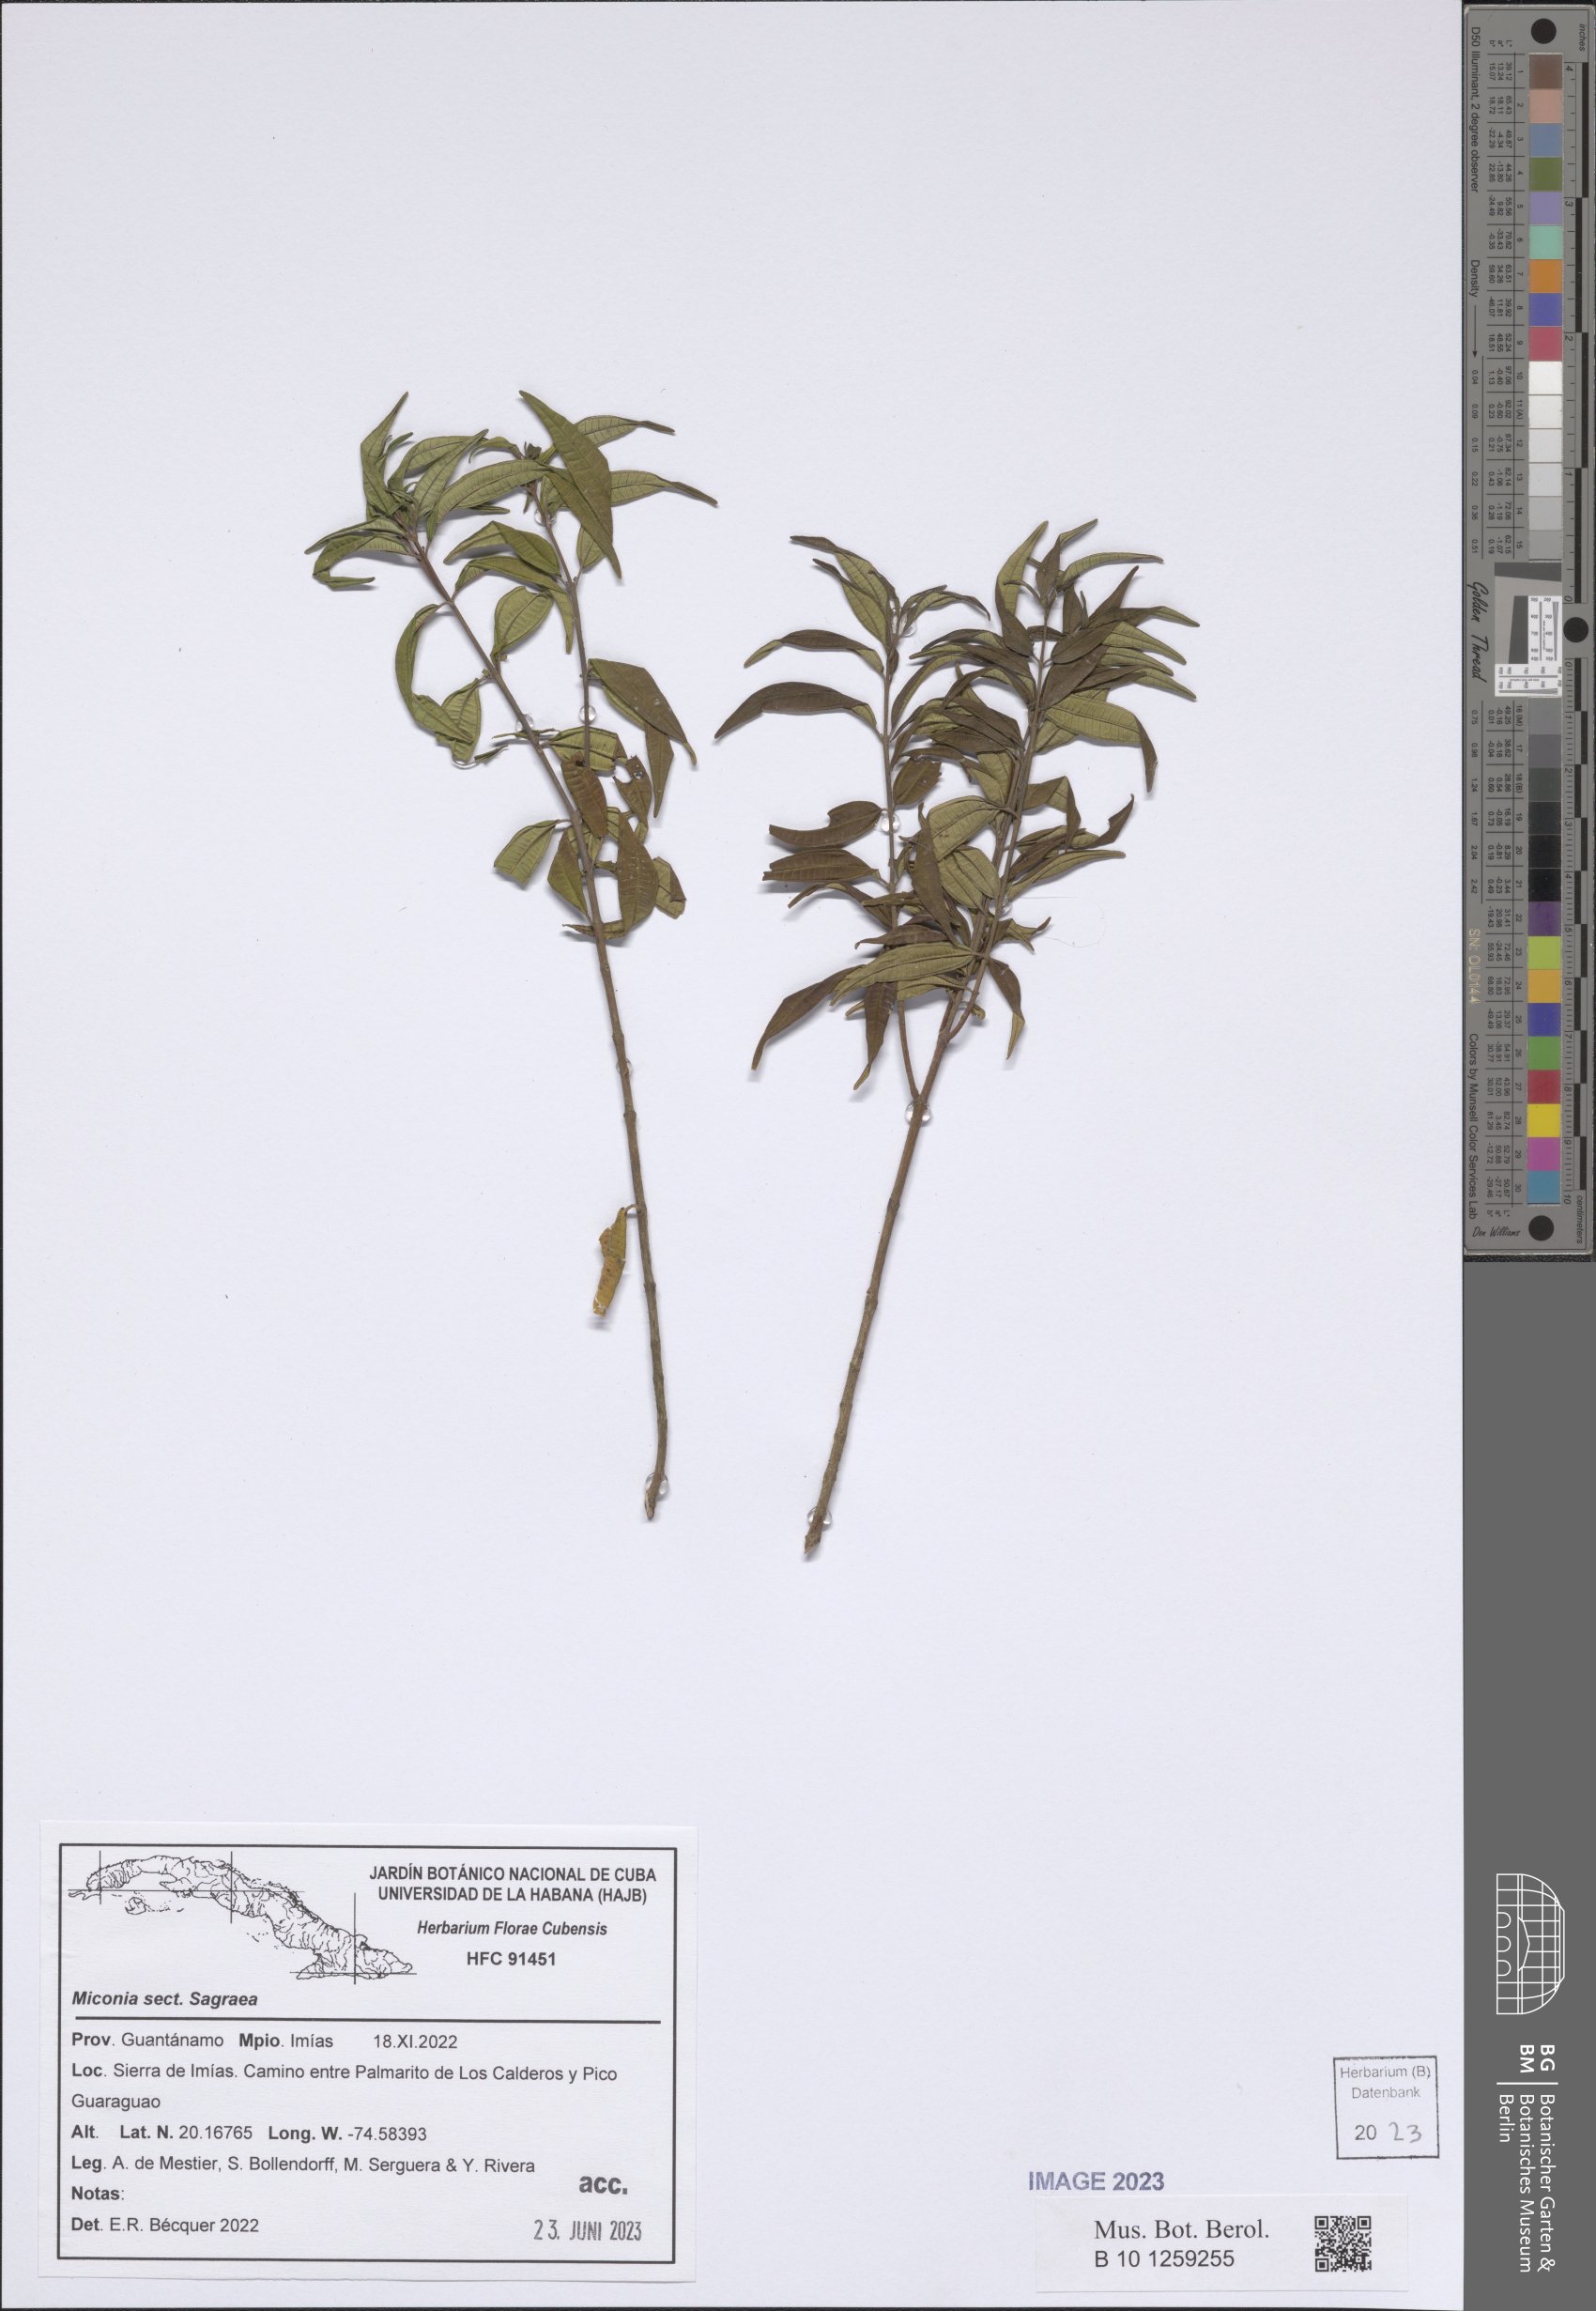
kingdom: Plantae
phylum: Tracheophyta
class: Magnoliopsida
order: Myrtales
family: Melastomataceae
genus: Miconia
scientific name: Miconia
